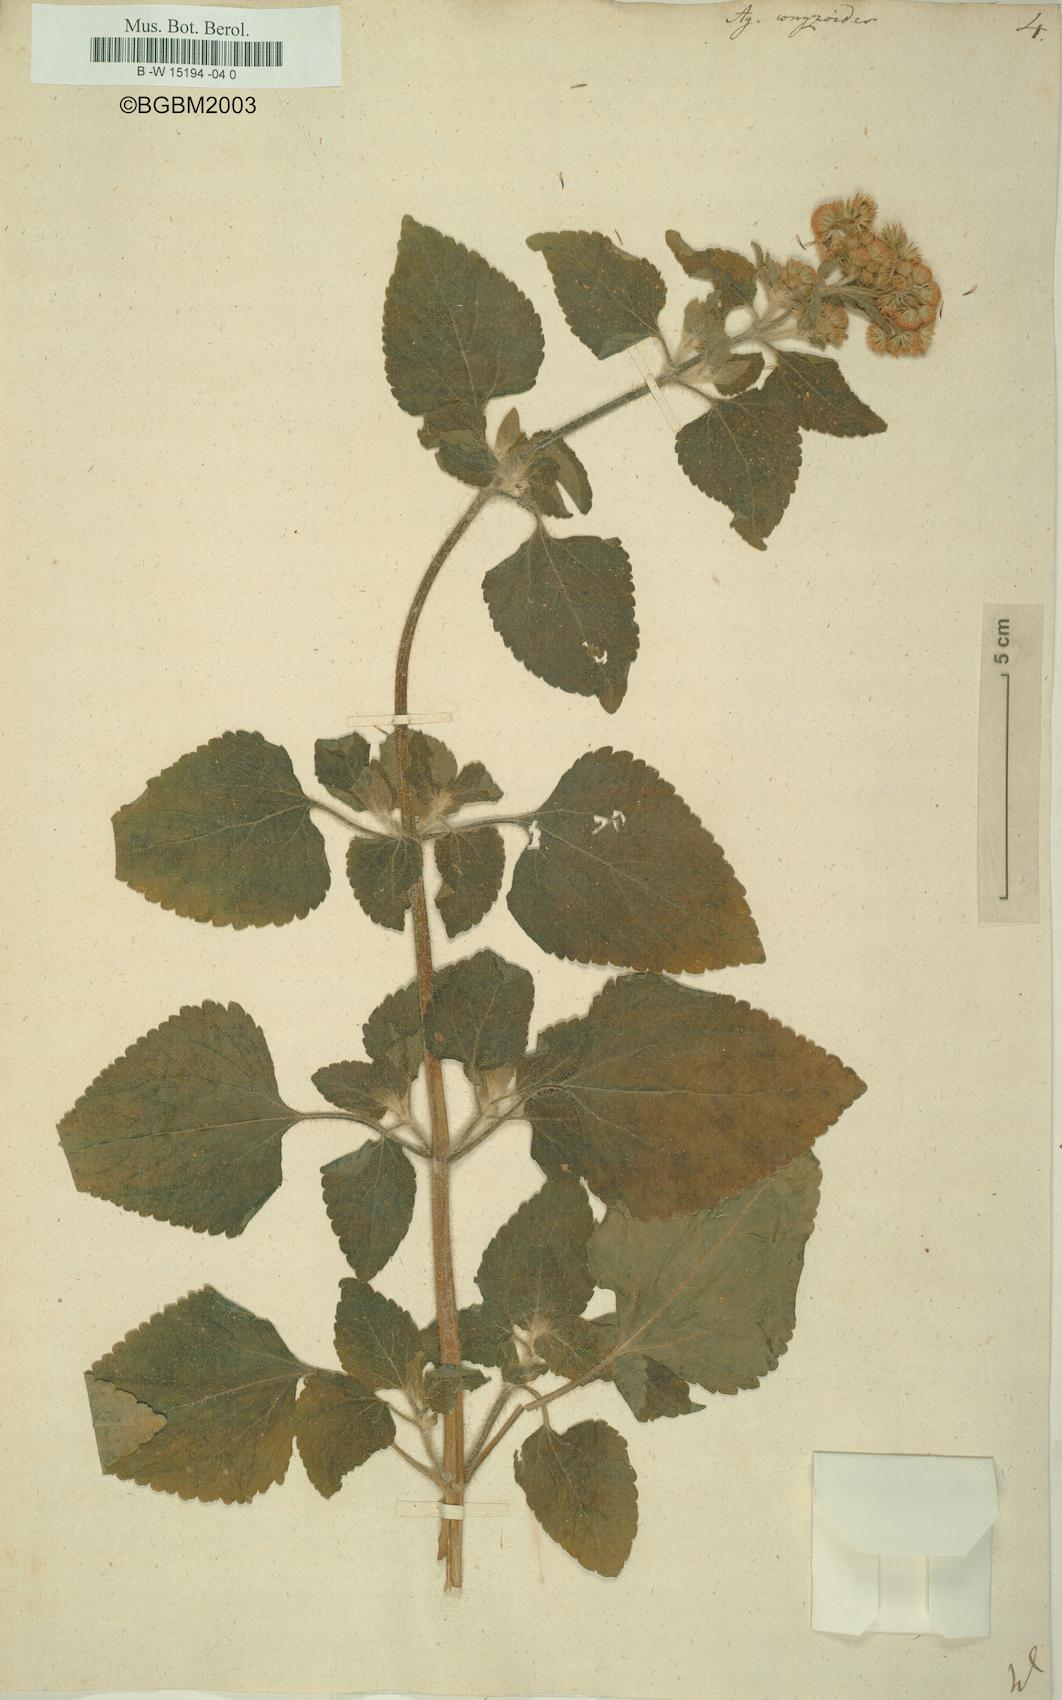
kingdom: Plantae
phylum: Tracheophyta
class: Magnoliopsida
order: Asterales
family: Asteraceae
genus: Ageratum
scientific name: Ageratum conyzoides
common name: Tropical whiteweed
